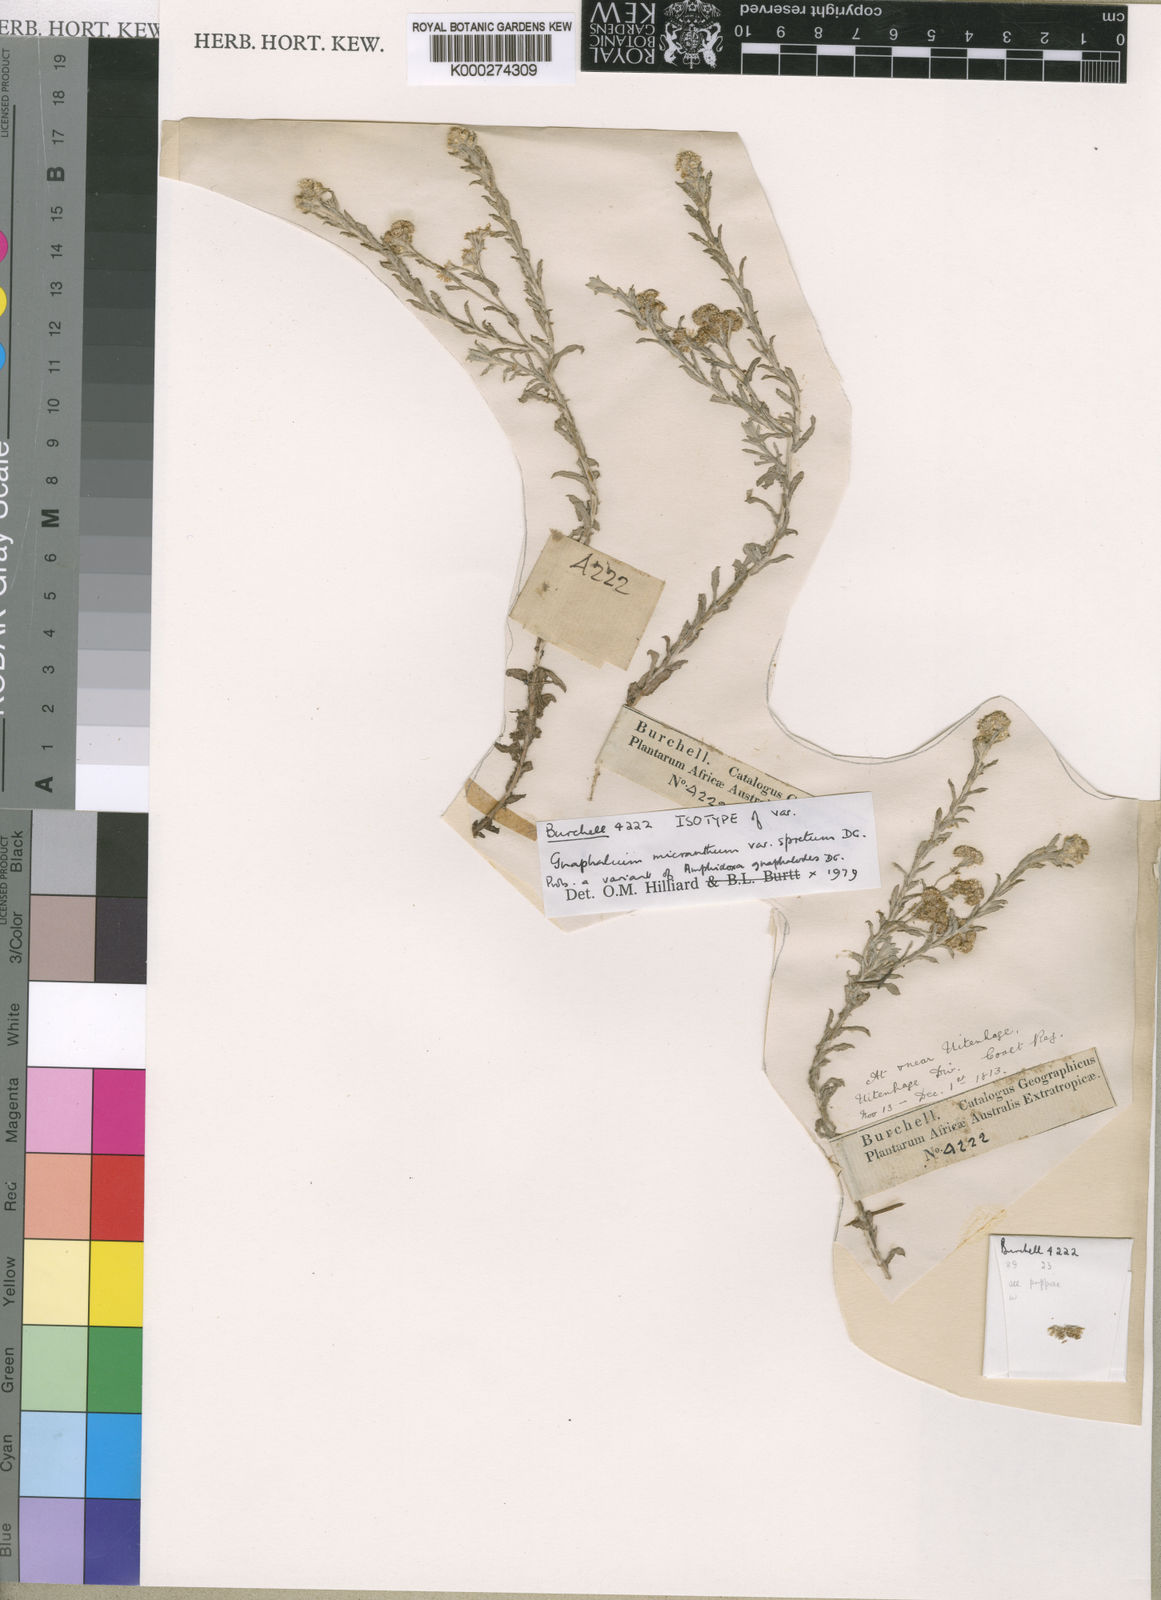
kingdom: Plantae
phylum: Tracheophyta
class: Magnoliopsida
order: Asterales
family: Asteraceae
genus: Gnaphalium
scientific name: Gnaphalium gnaphalodes
